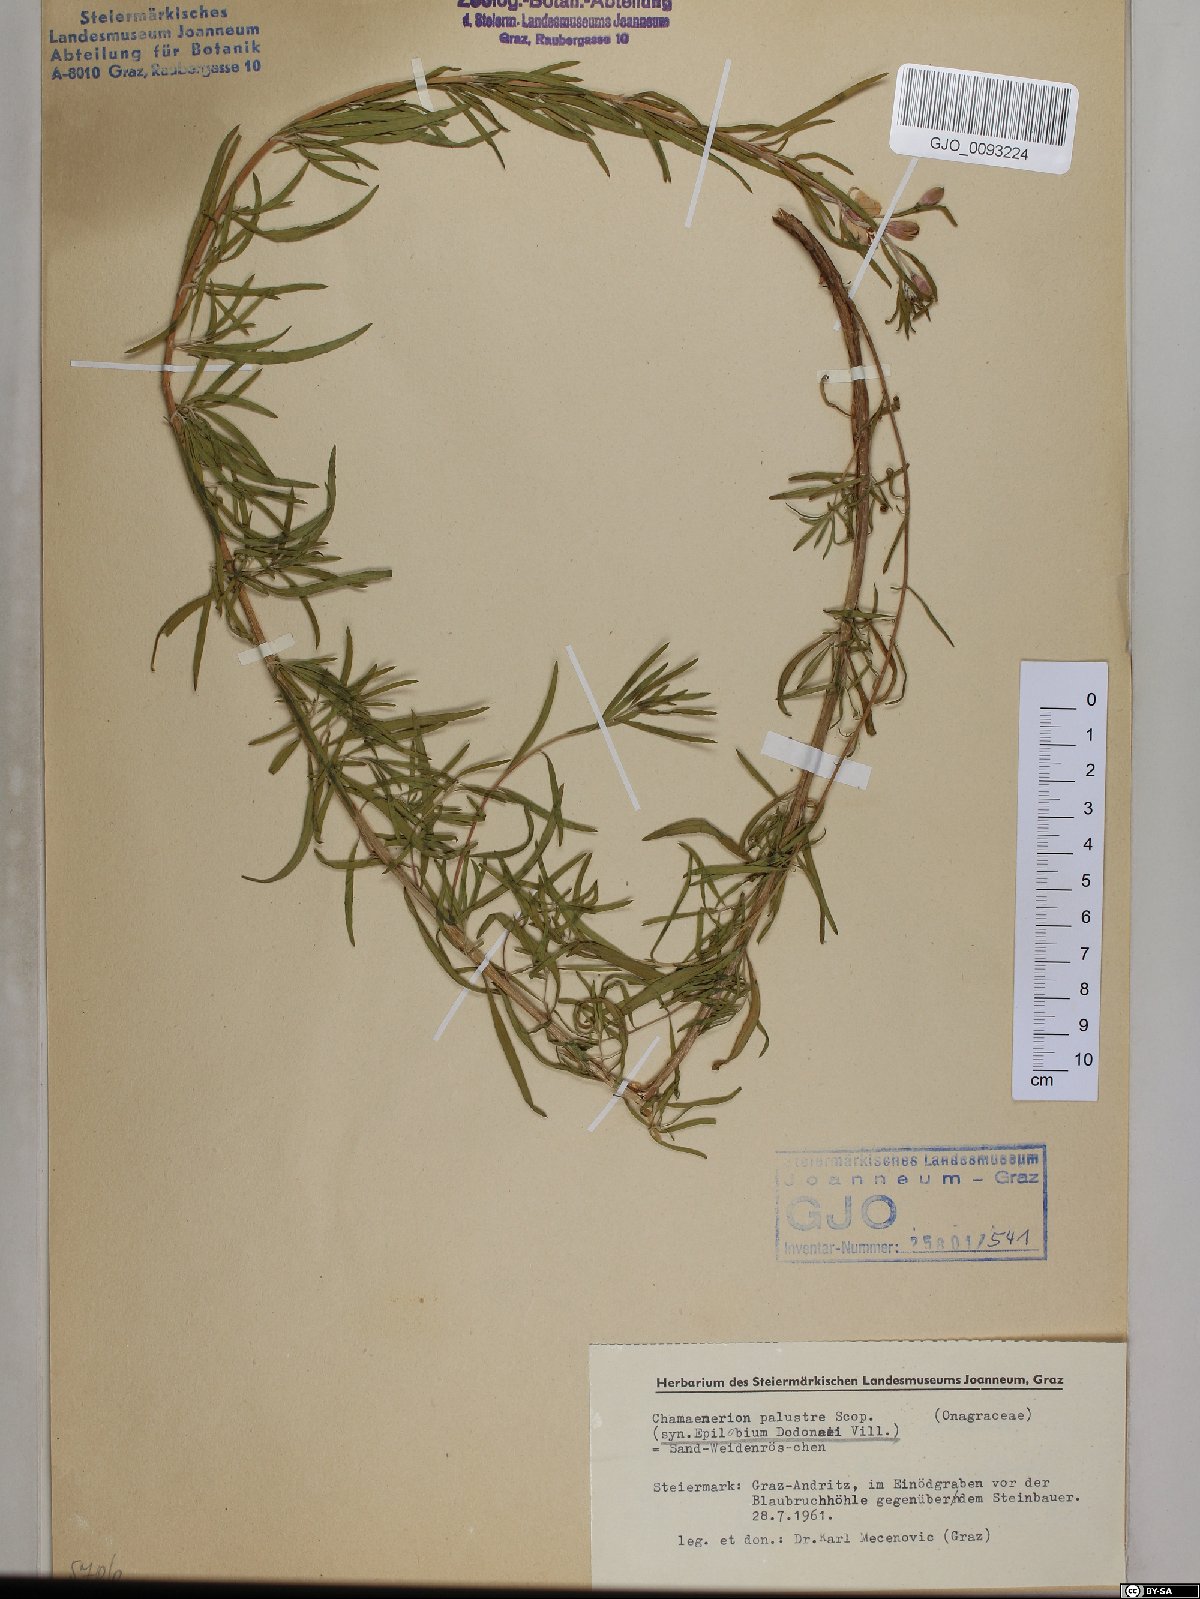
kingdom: Plantae
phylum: Tracheophyta
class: Magnoliopsida
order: Myrtales
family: Onagraceae
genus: Chamaenerion
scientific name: Chamaenerion dodonaei
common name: Rosemary-leaved willowherb
